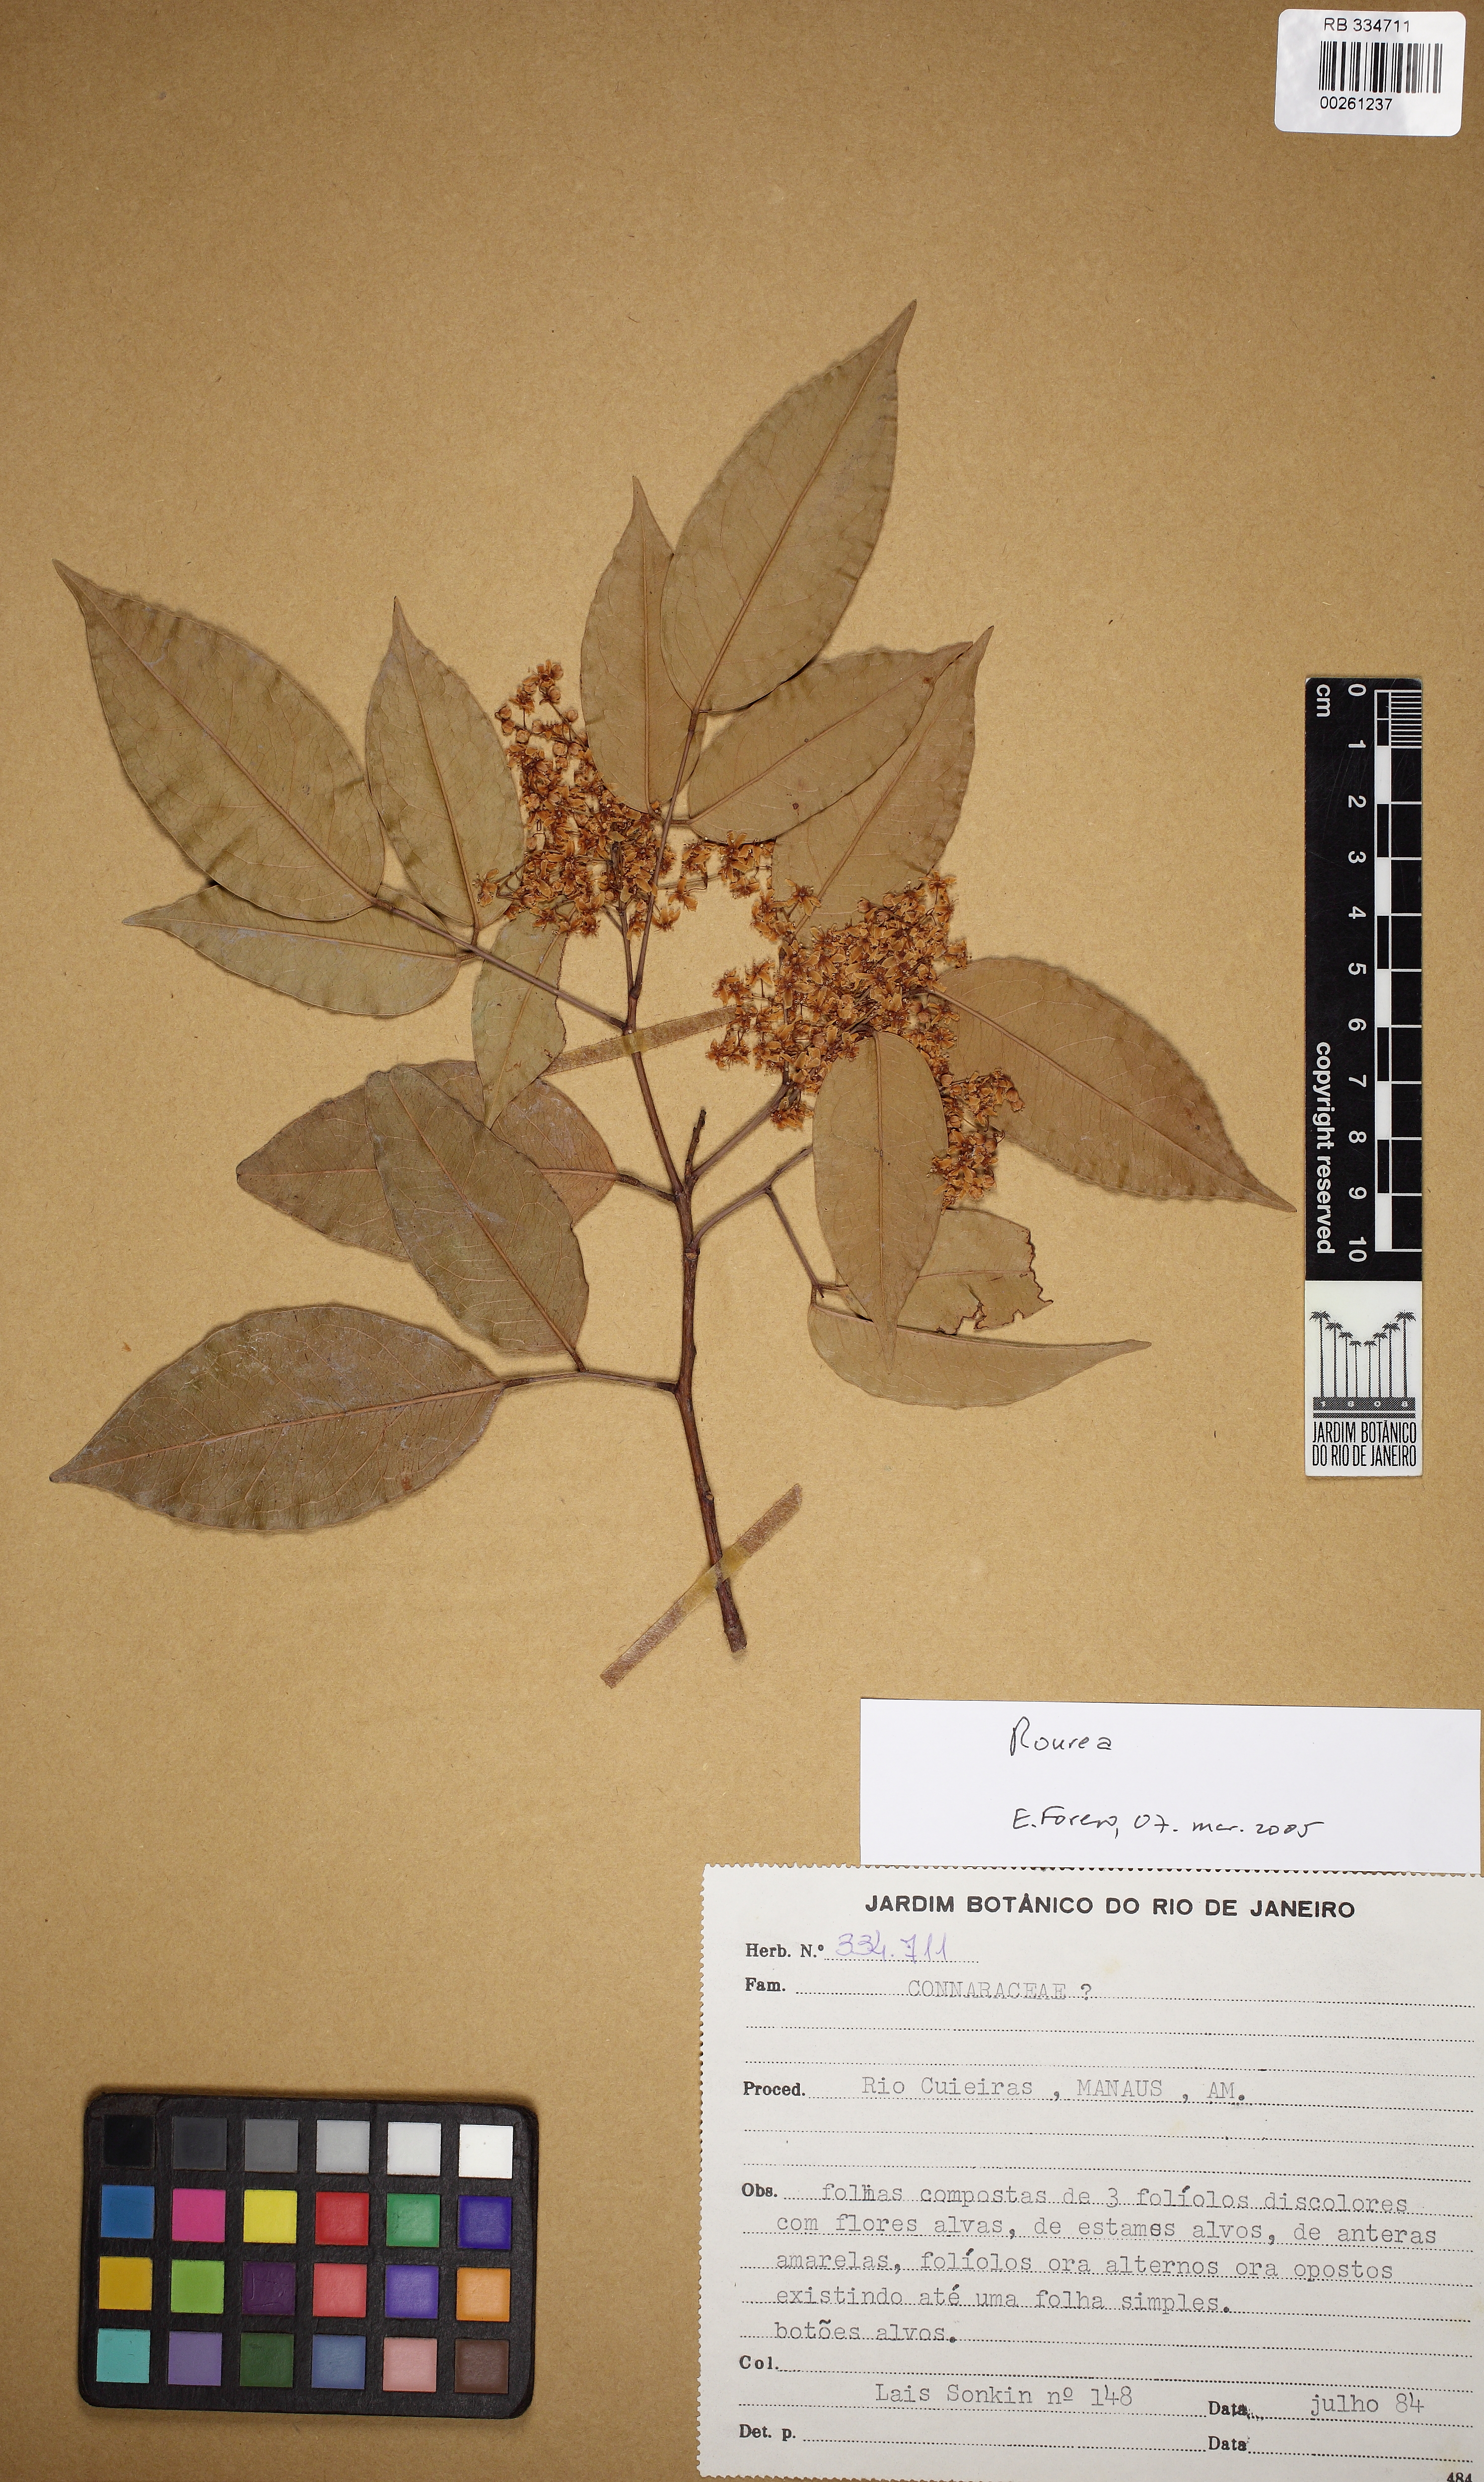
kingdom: Plantae
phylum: Tracheophyta
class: Magnoliopsida
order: Oxalidales
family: Connaraceae
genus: Rourea
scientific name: Rourea
